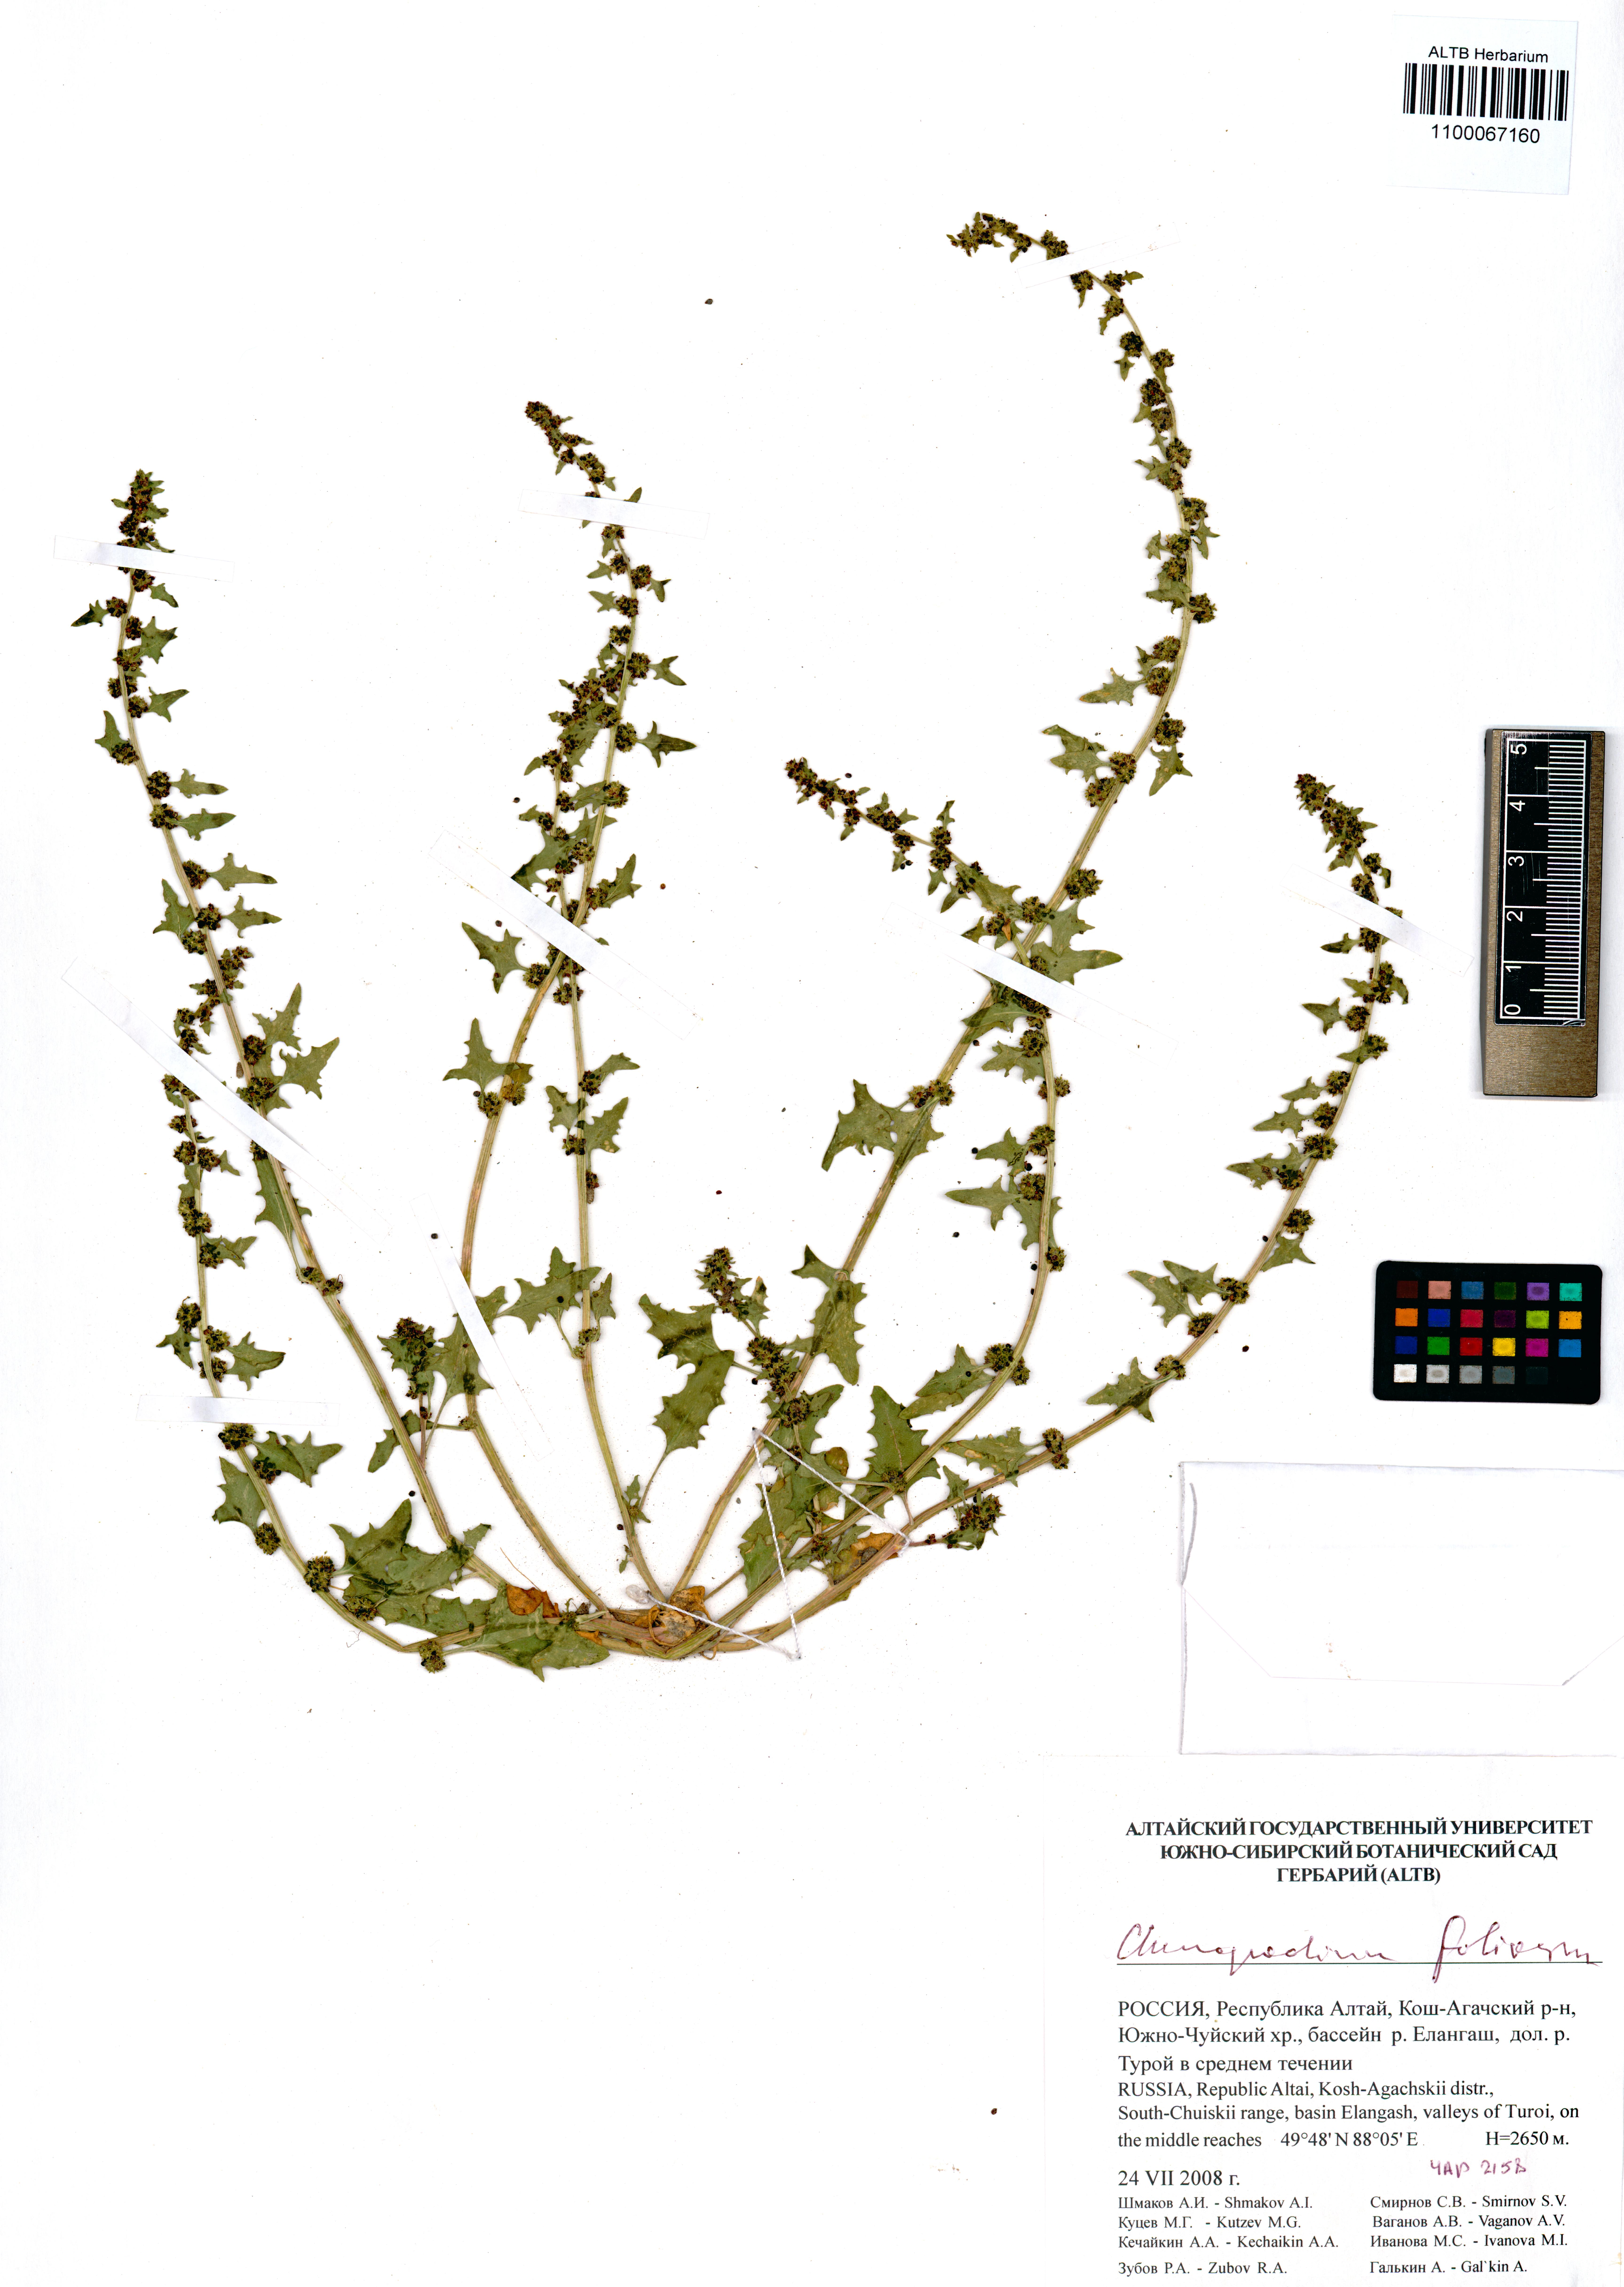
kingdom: Plantae
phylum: Tracheophyta
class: Magnoliopsida
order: Caryophyllales
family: Amaranthaceae
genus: Blitum
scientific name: Blitum virgatum
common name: Strawberry goosefoot
